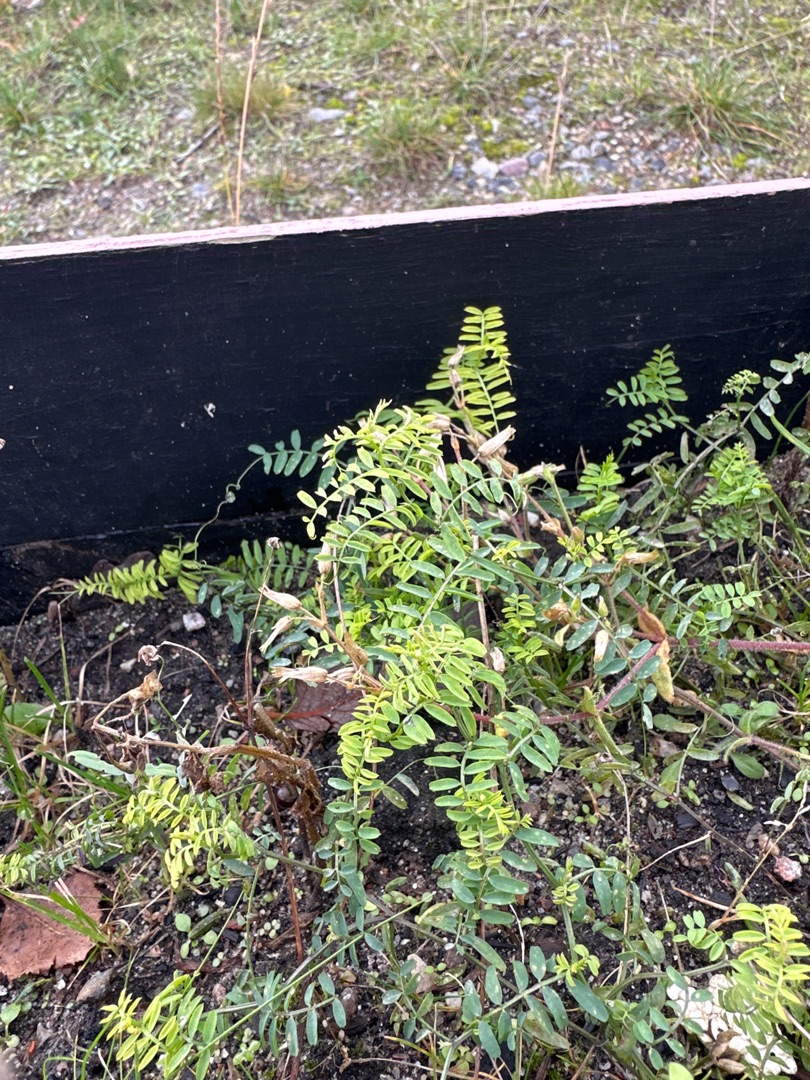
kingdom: Plantae
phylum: Tracheophyta
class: Magnoliopsida
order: Fabales
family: Fabaceae
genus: Vicia
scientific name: Vicia
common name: Vikkeslægten
